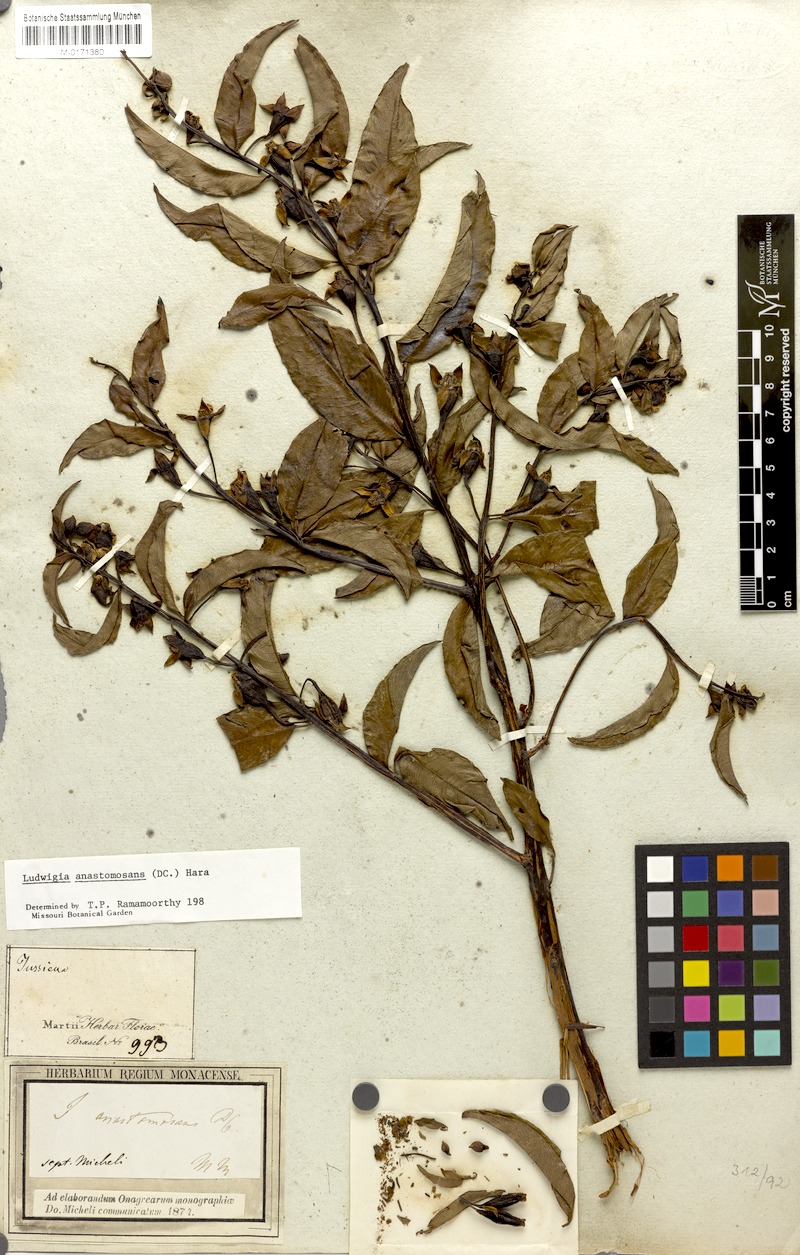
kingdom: Plantae
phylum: Tracheophyta
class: Magnoliopsida
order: Myrtales
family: Onagraceae
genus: Ludwigia
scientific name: Ludwigia anastomosans
